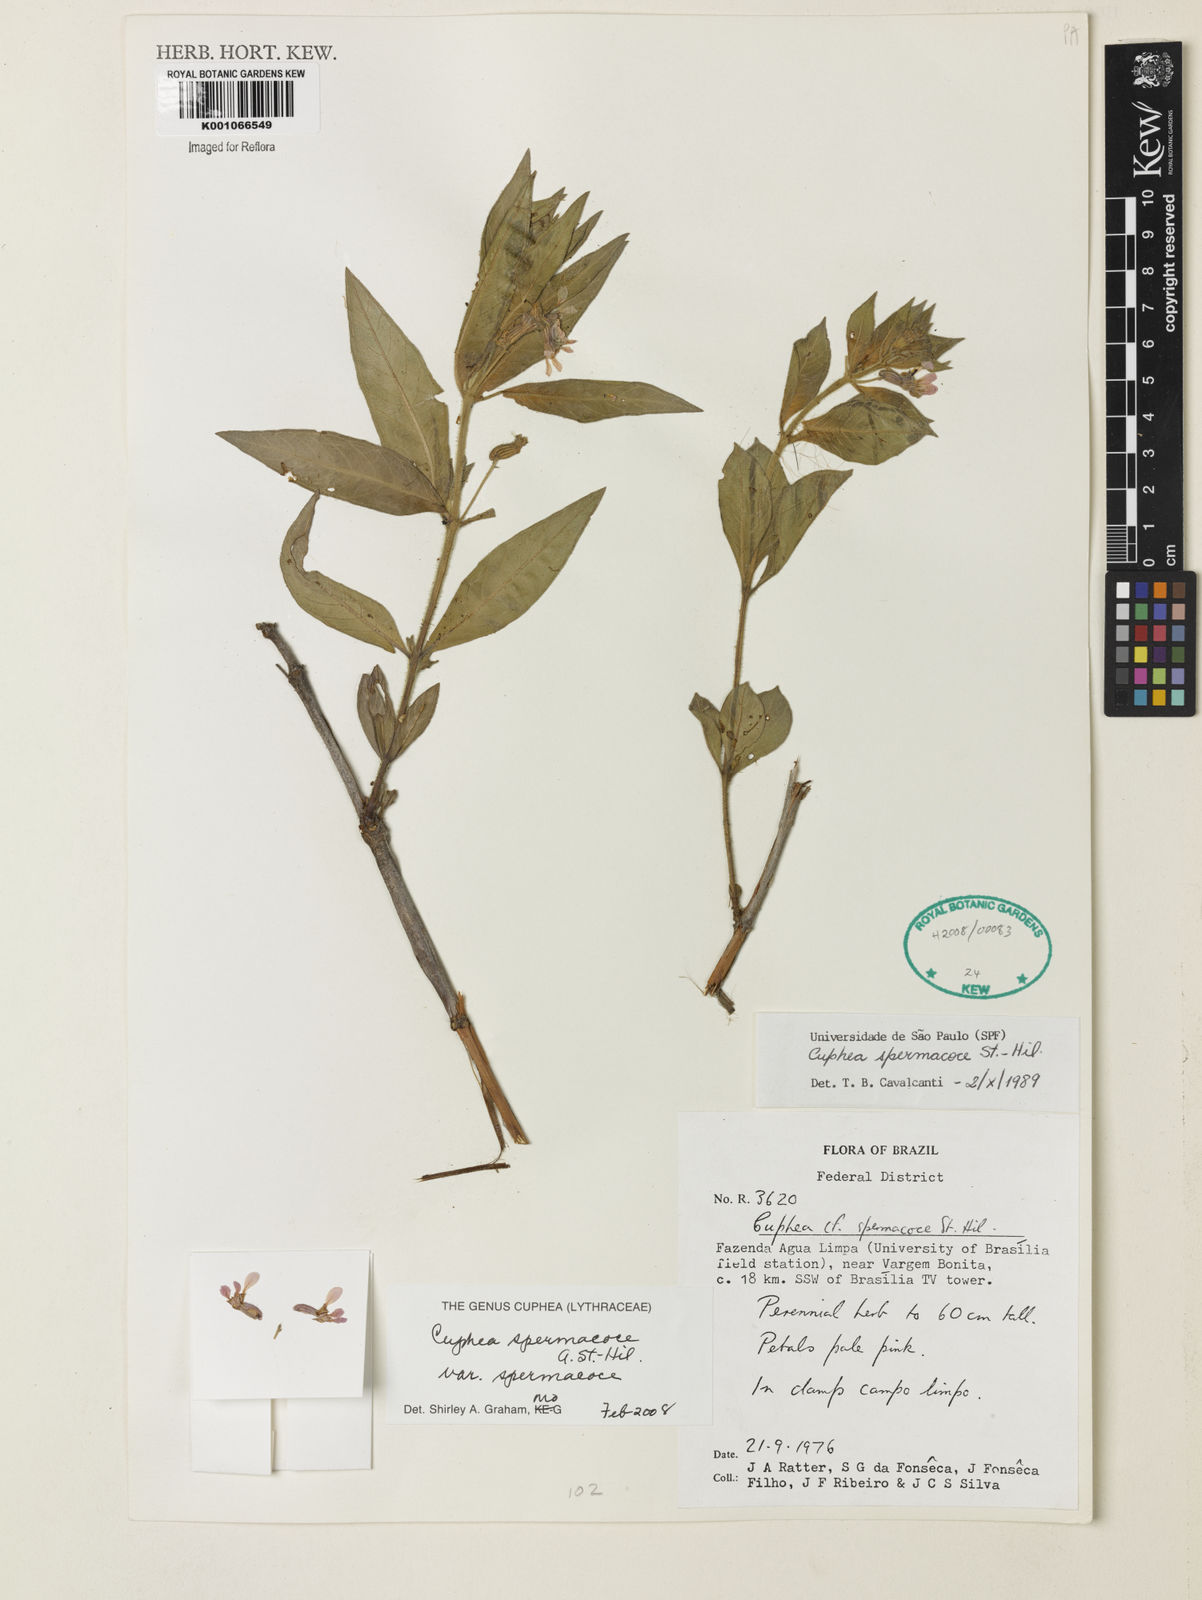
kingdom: Plantae
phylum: Tracheophyta
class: Magnoliopsida
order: Myrtales
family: Lythraceae
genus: Cuphea
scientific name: Cuphea spermacoce
